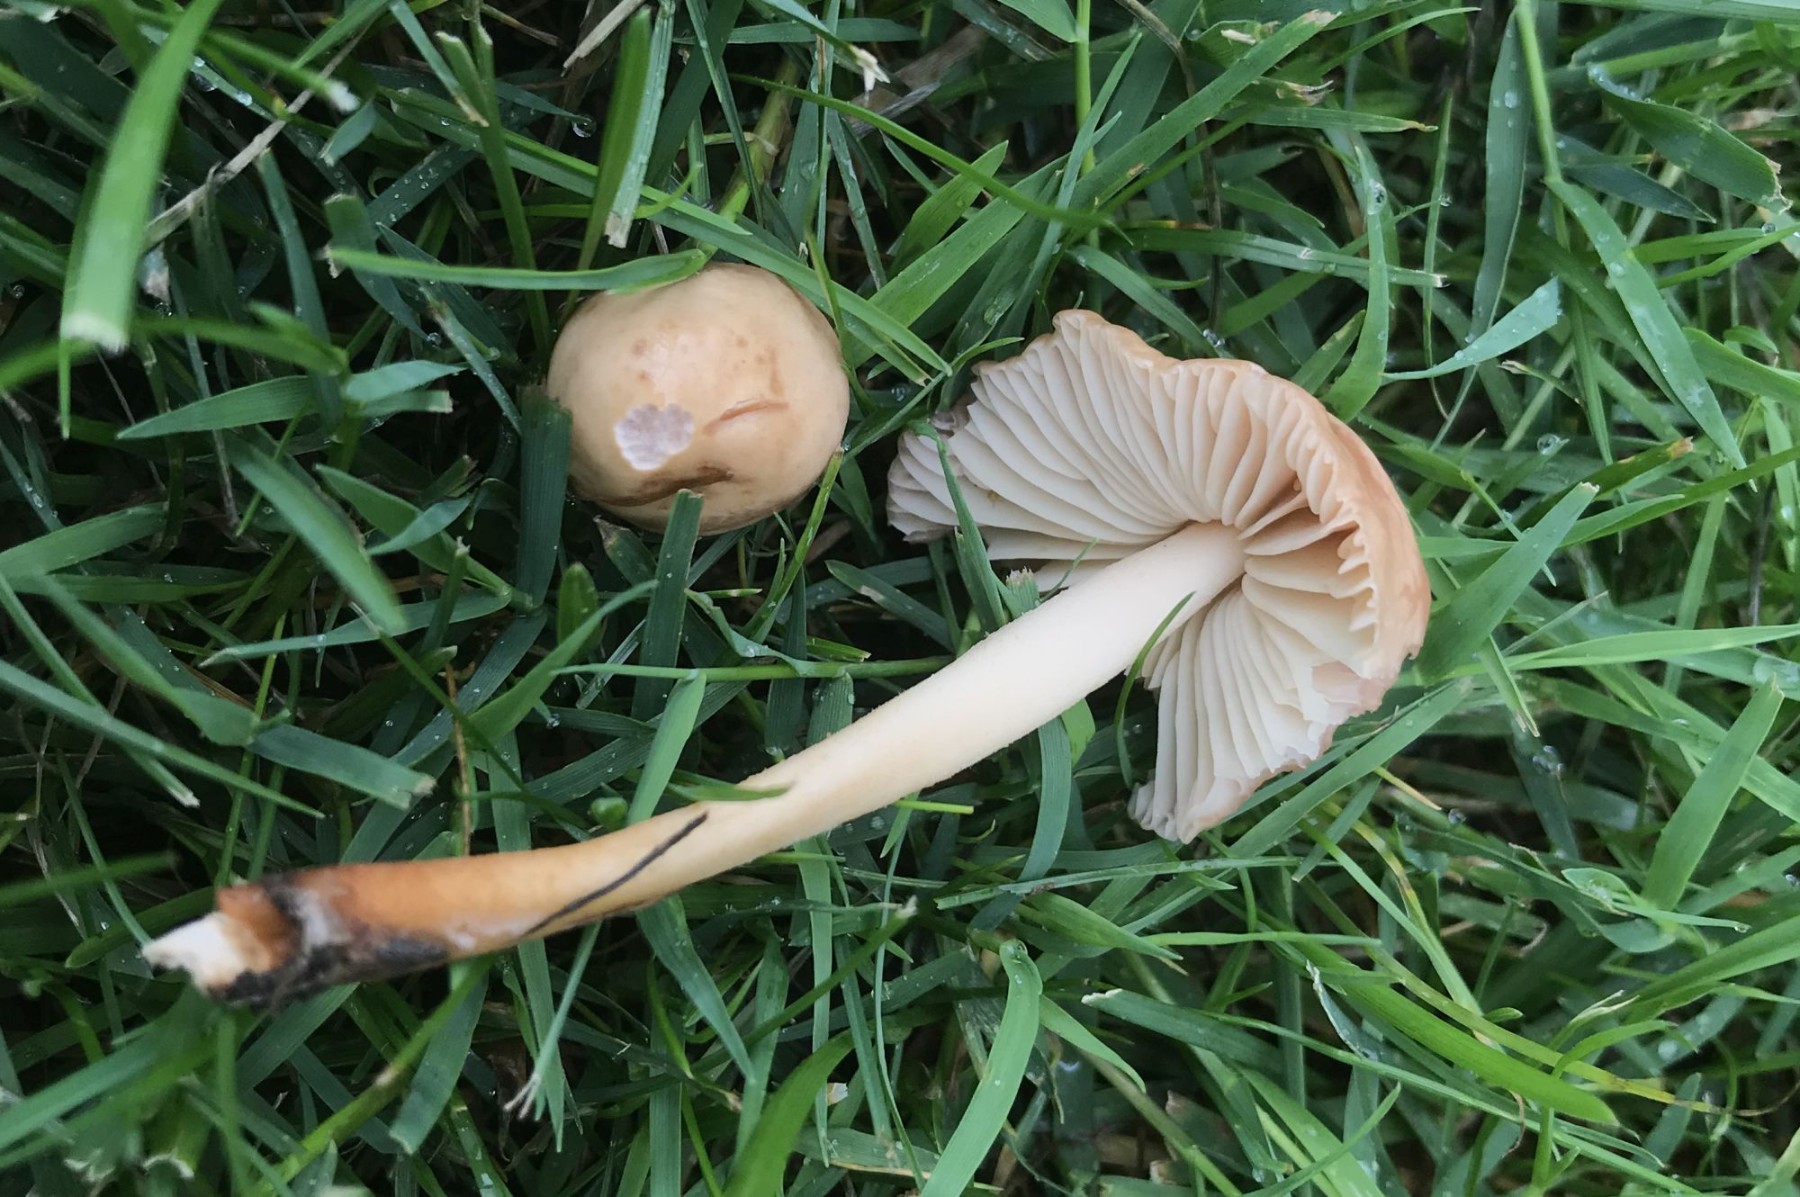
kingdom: Fungi
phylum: Basidiomycota
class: Agaricomycetes
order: Agaricales
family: Marasmiaceae
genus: Marasmius
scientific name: Marasmius oreades
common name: elledans-bruskhat
